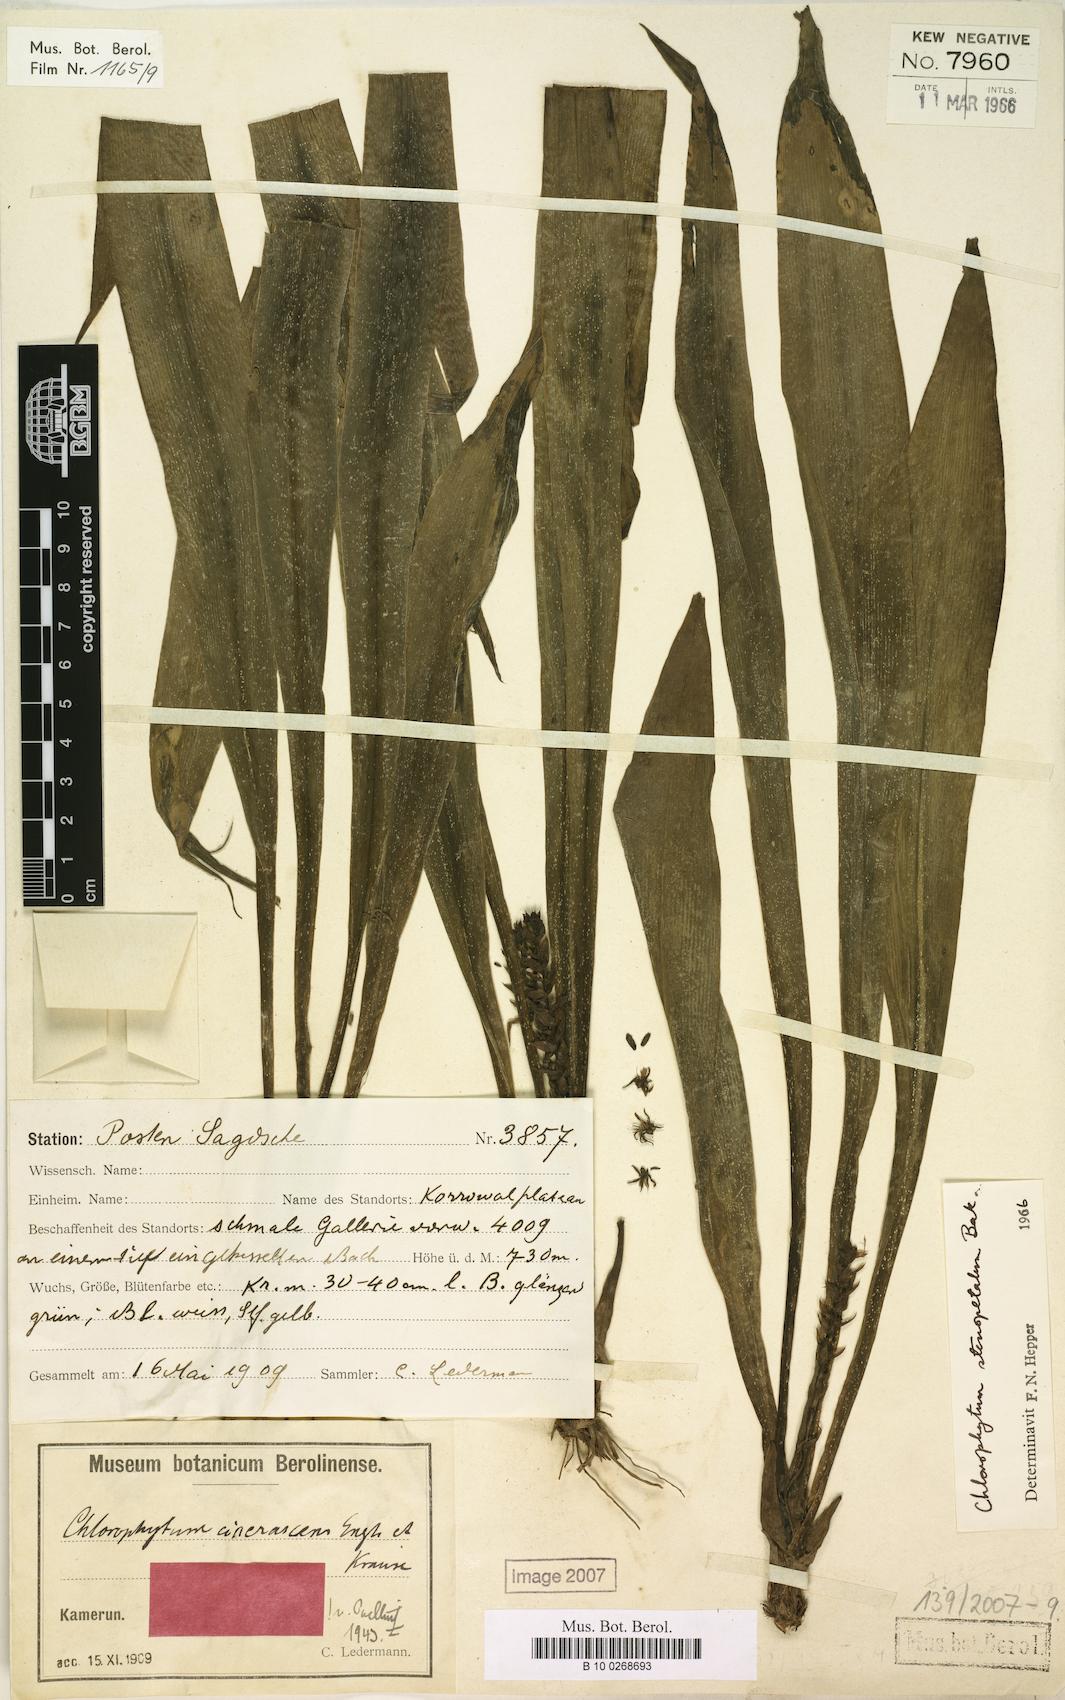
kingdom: Plantae
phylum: Tracheophyta
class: Liliopsida
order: Asparagales
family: Asparagaceae
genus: Chlorophytum
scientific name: Chlorophytum stenopetalum
